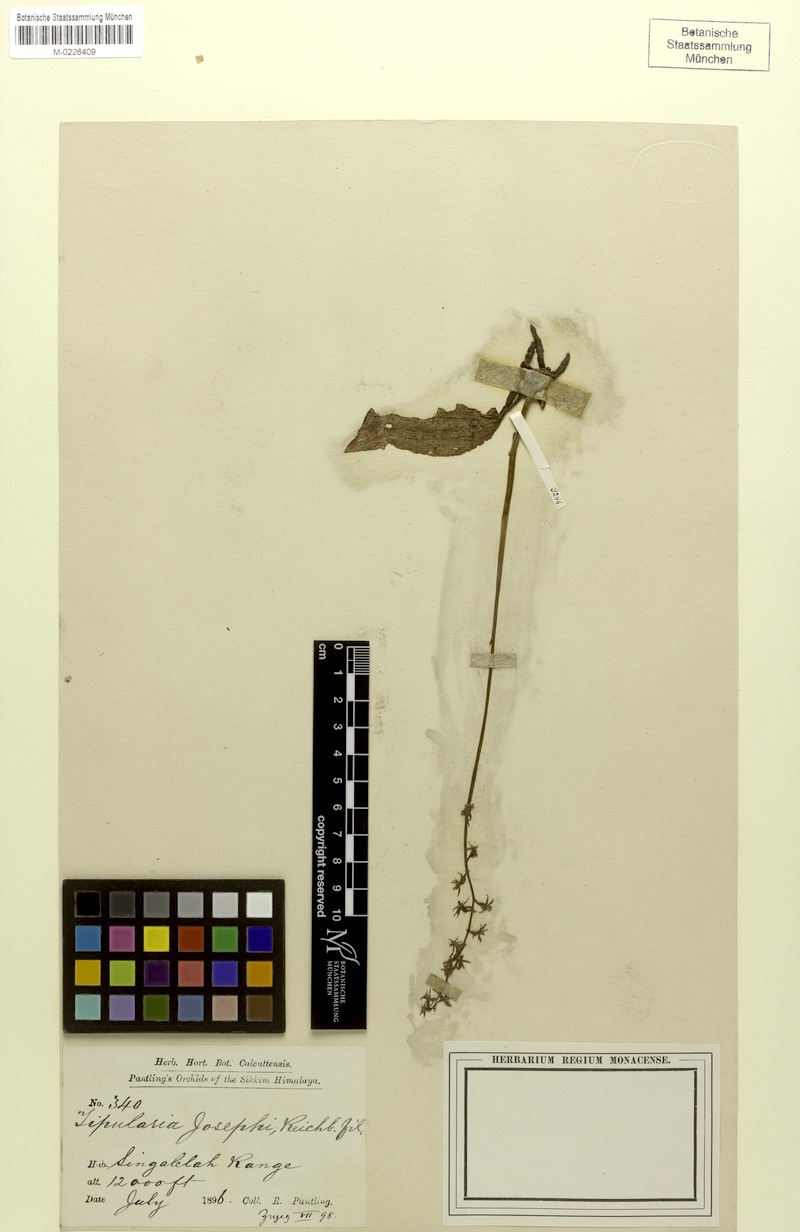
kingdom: Plantae
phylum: Tracheophyta
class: Liliopsida
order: Asparagales
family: Orchidaceae
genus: Tipularia
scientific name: Tipularia josephi
